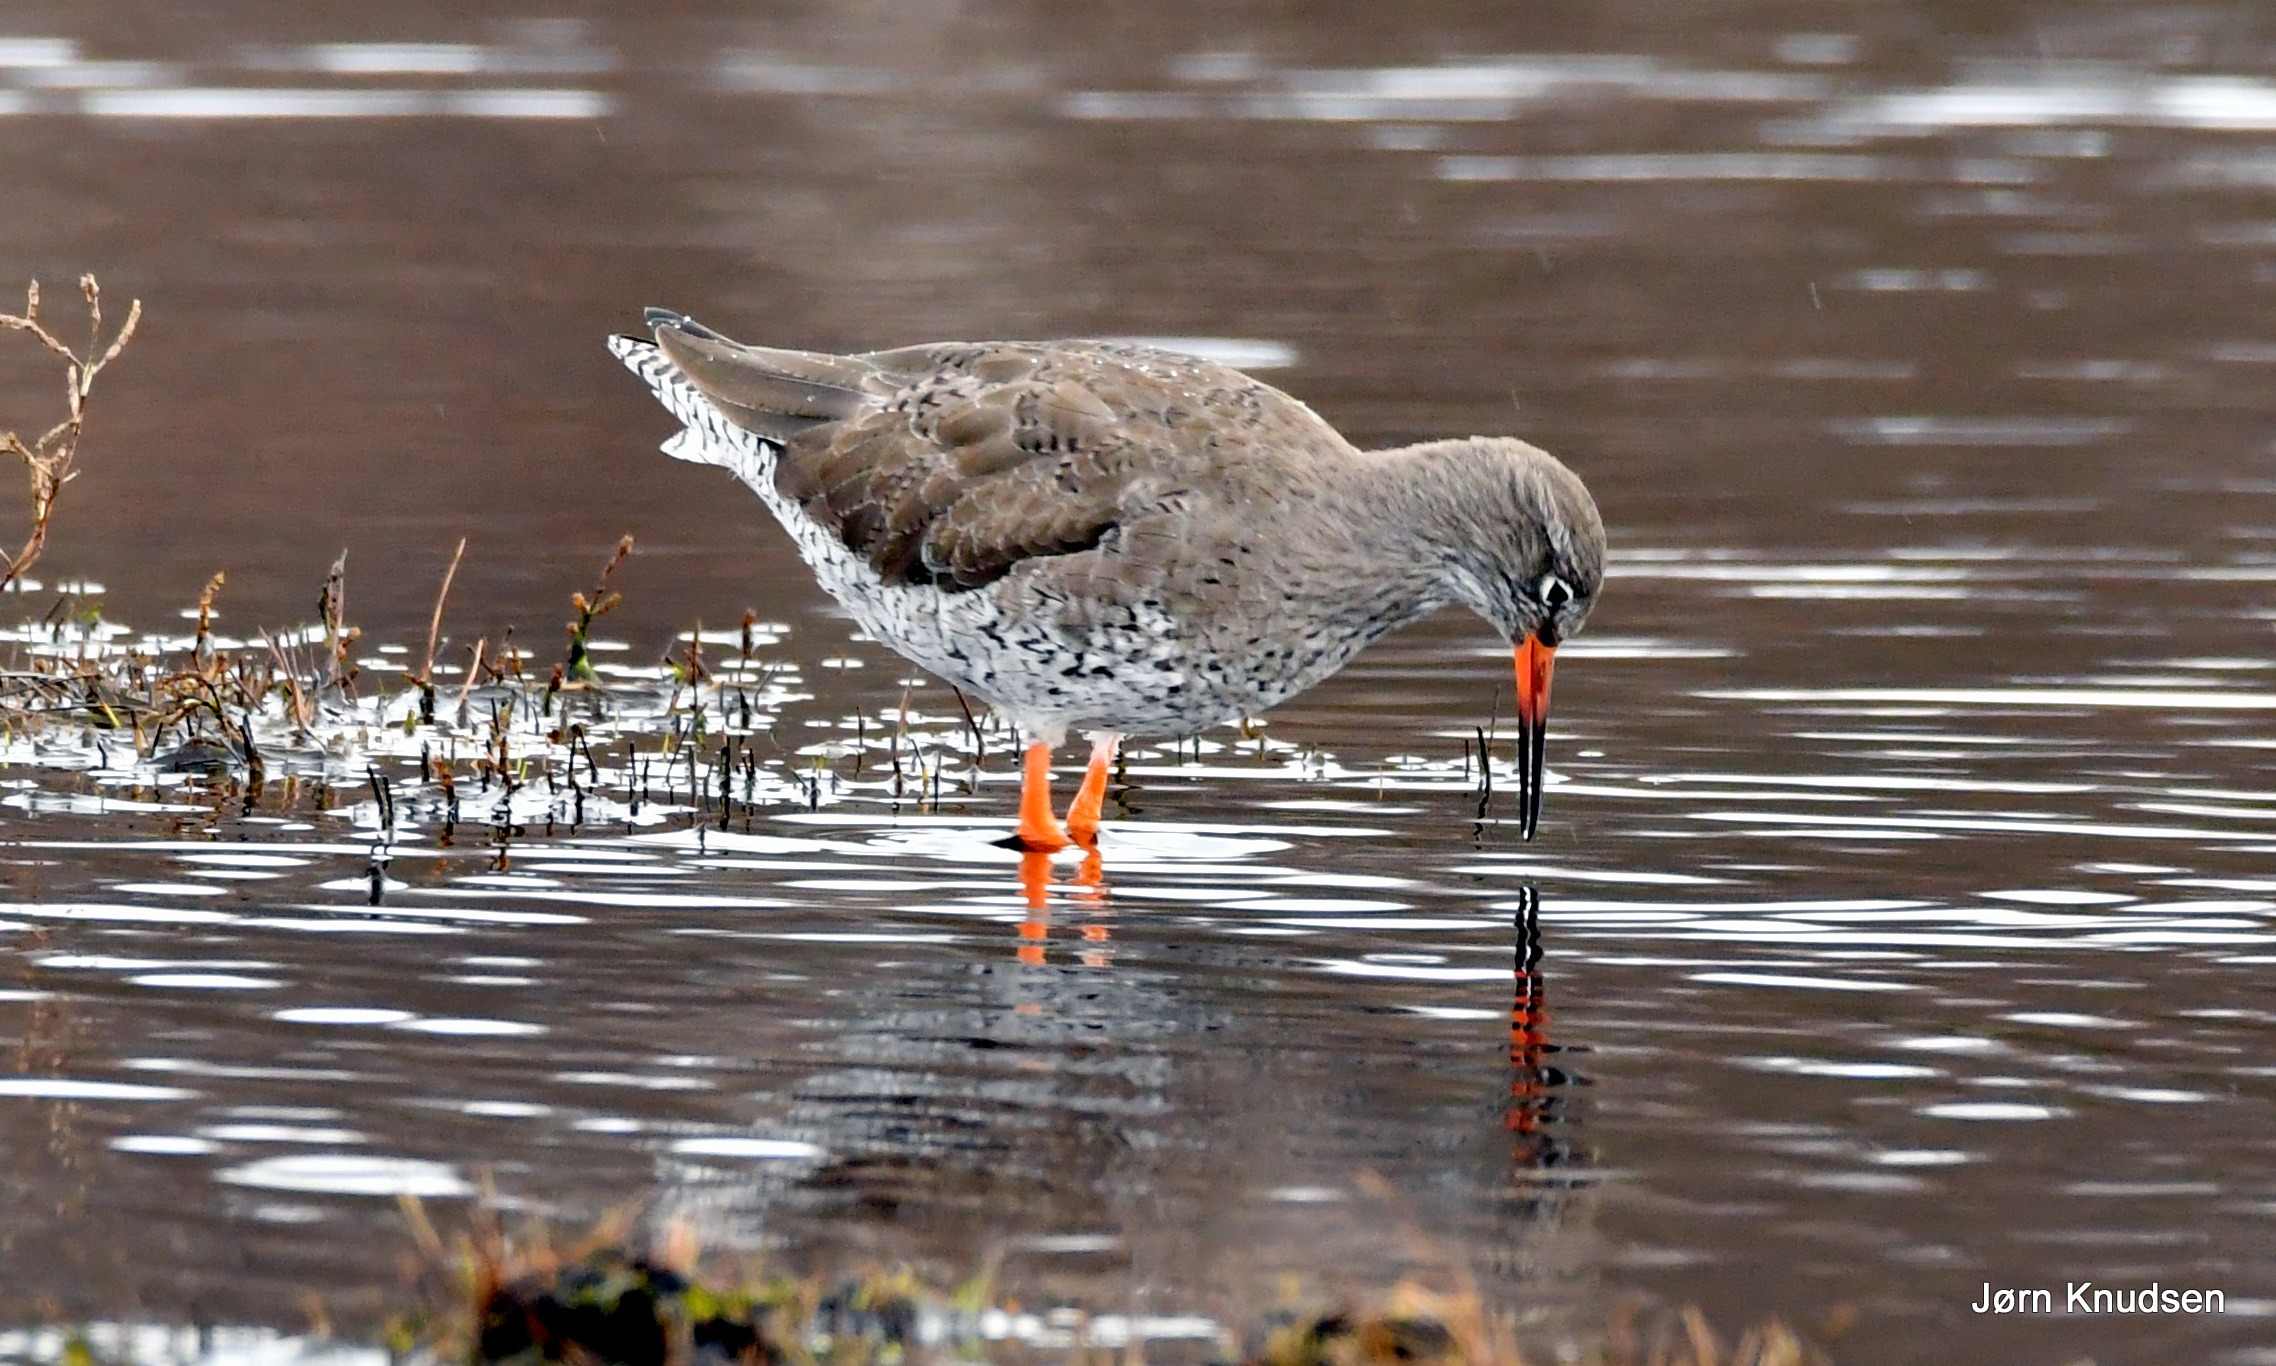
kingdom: Animalia
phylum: Chordata
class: Aves
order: Charadriiformes
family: Scolopacidae
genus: Tringa
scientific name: Tringa totanus
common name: Rødben
